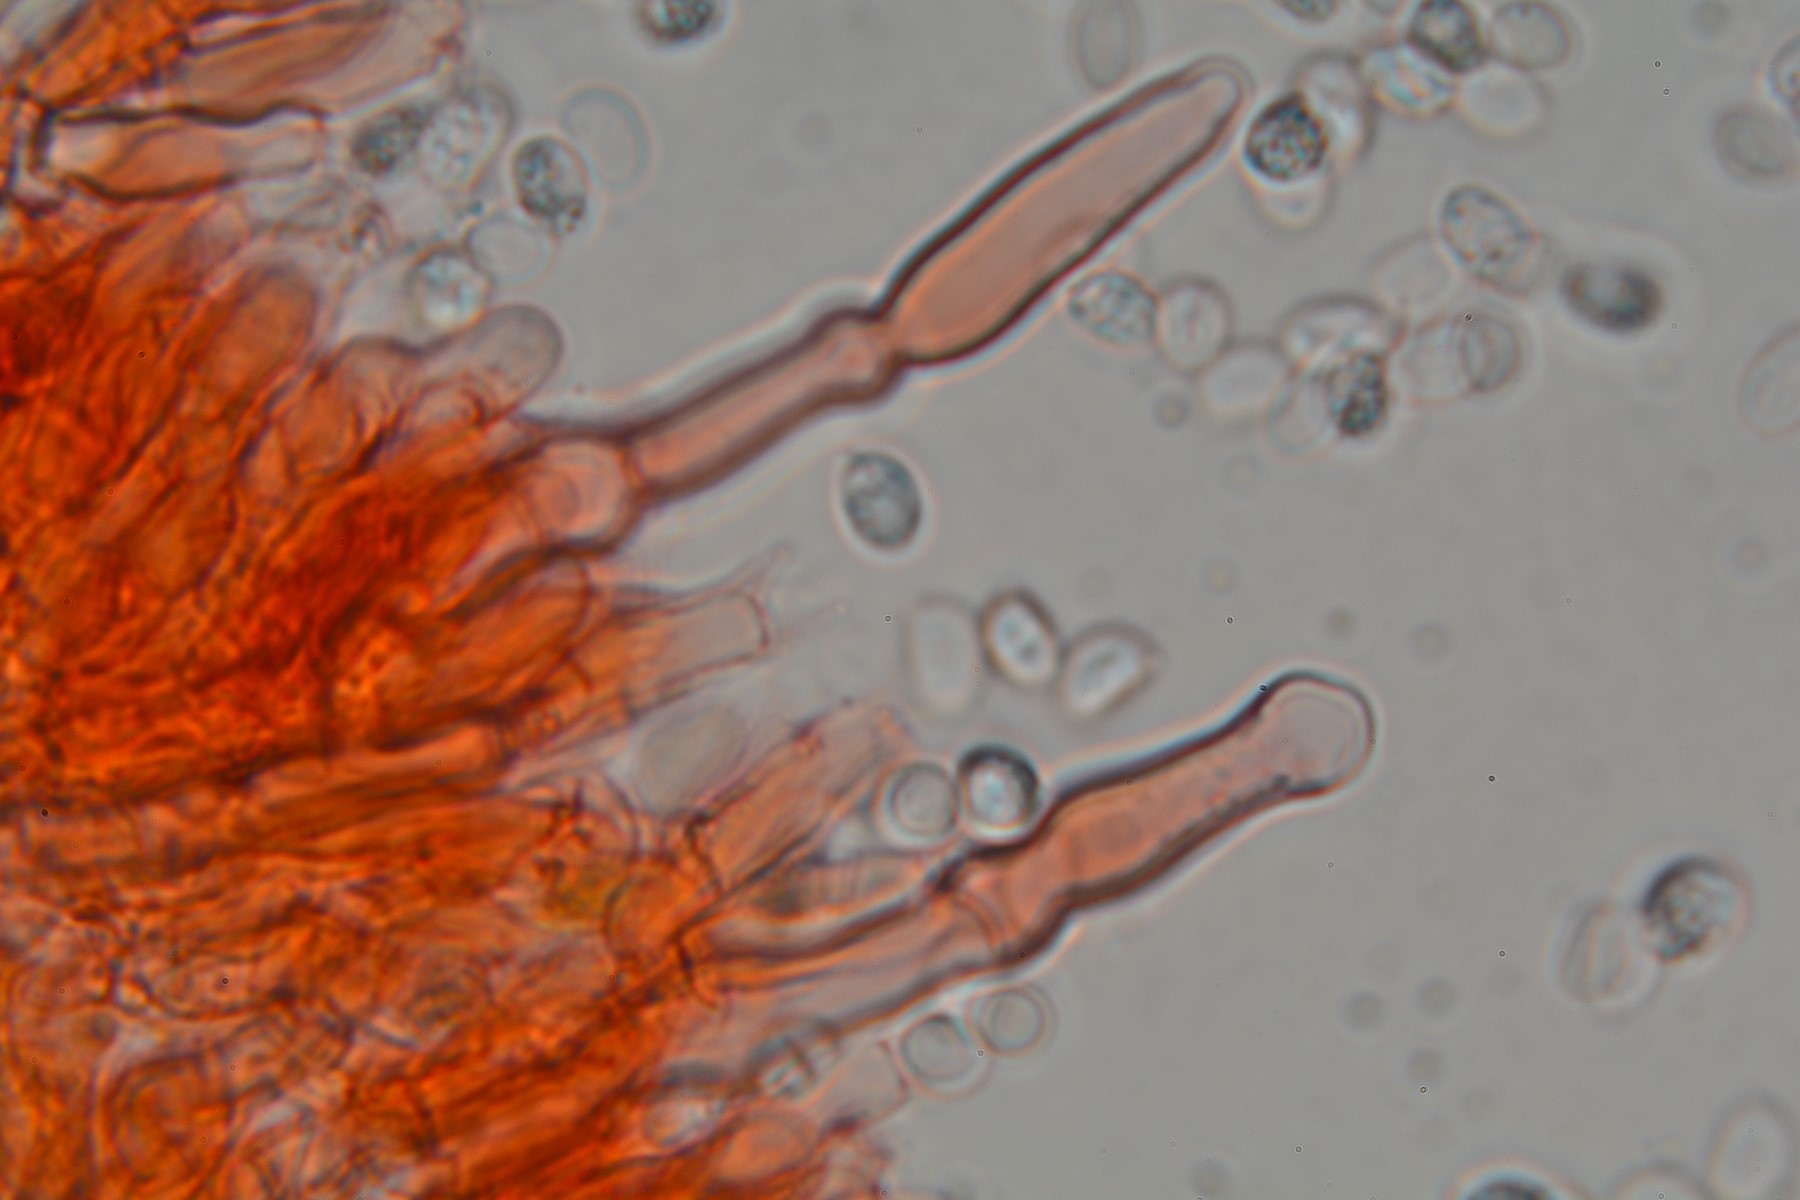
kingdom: Fungi
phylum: Basidiomycota
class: Agaricomycetes
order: Hymenochaetales
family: Hyphodontiaceae
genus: Hyphodontia
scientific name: Hyphodontia pallidula
